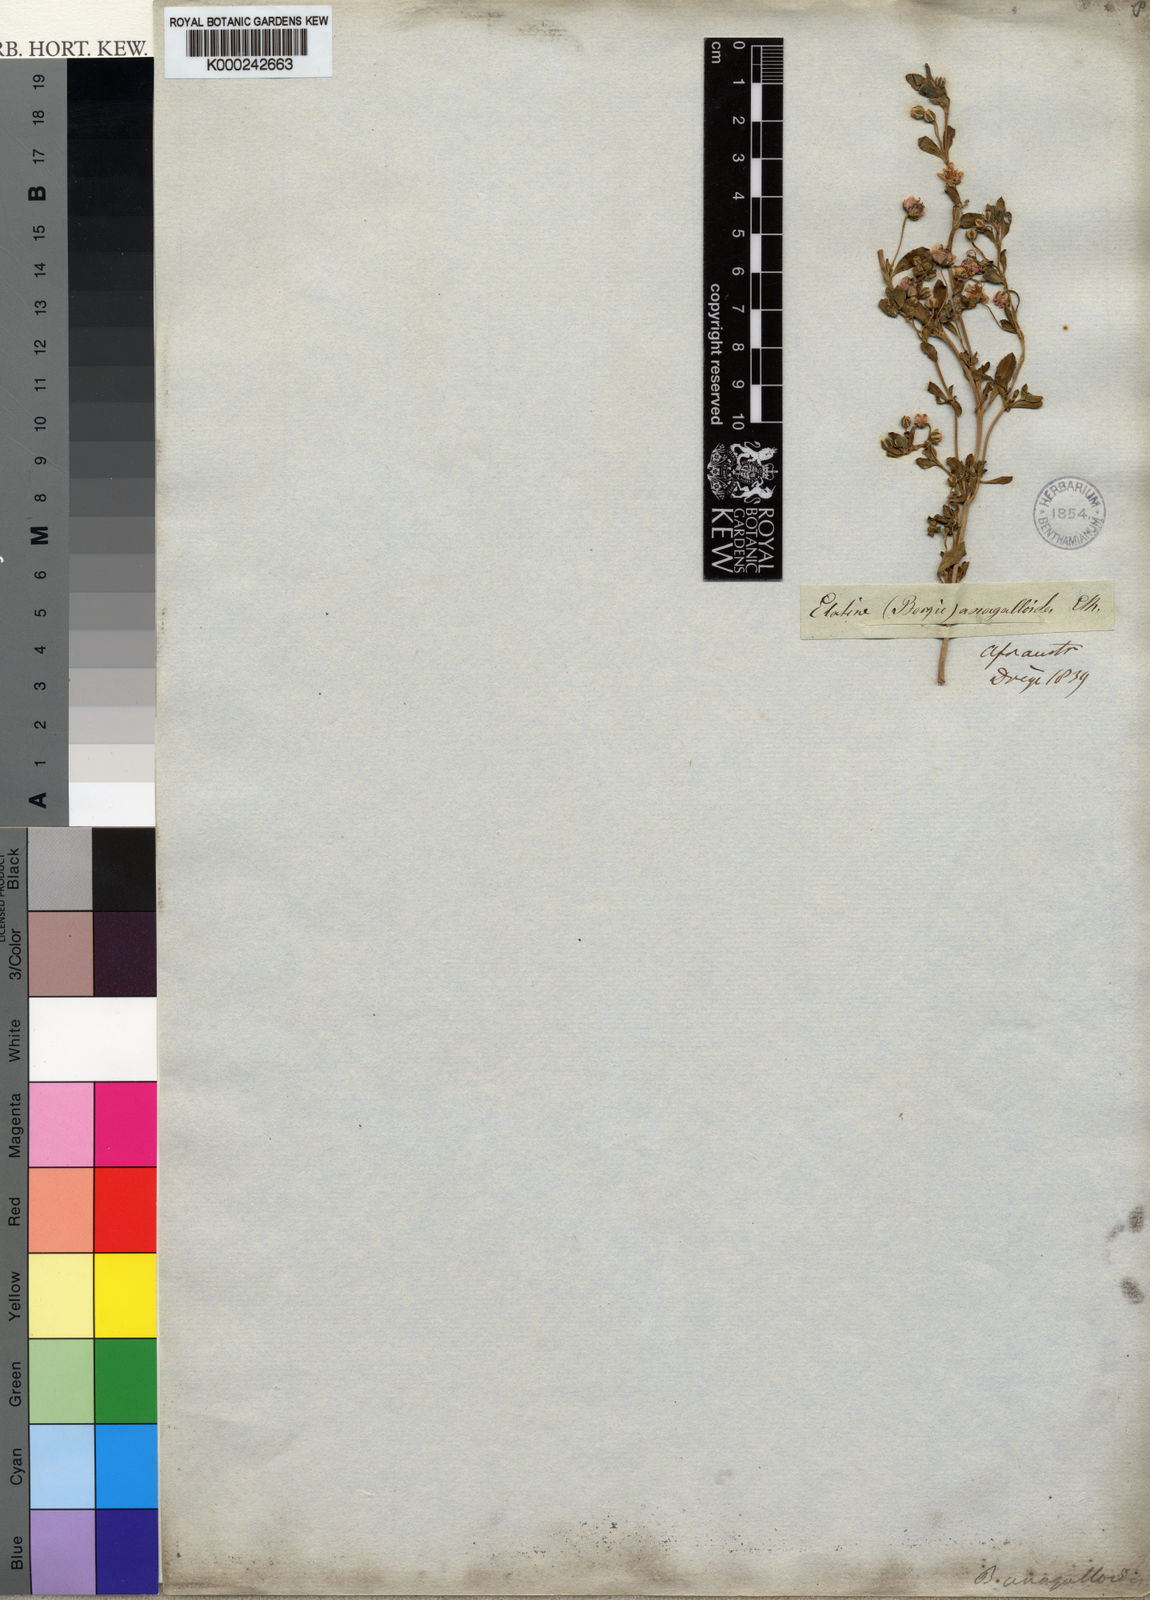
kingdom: Plantae
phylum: Tracheophyta
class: Magnoliopsida
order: Malpighiales
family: Elatinaceae
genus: Bergia
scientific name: Bergia anagalloides
